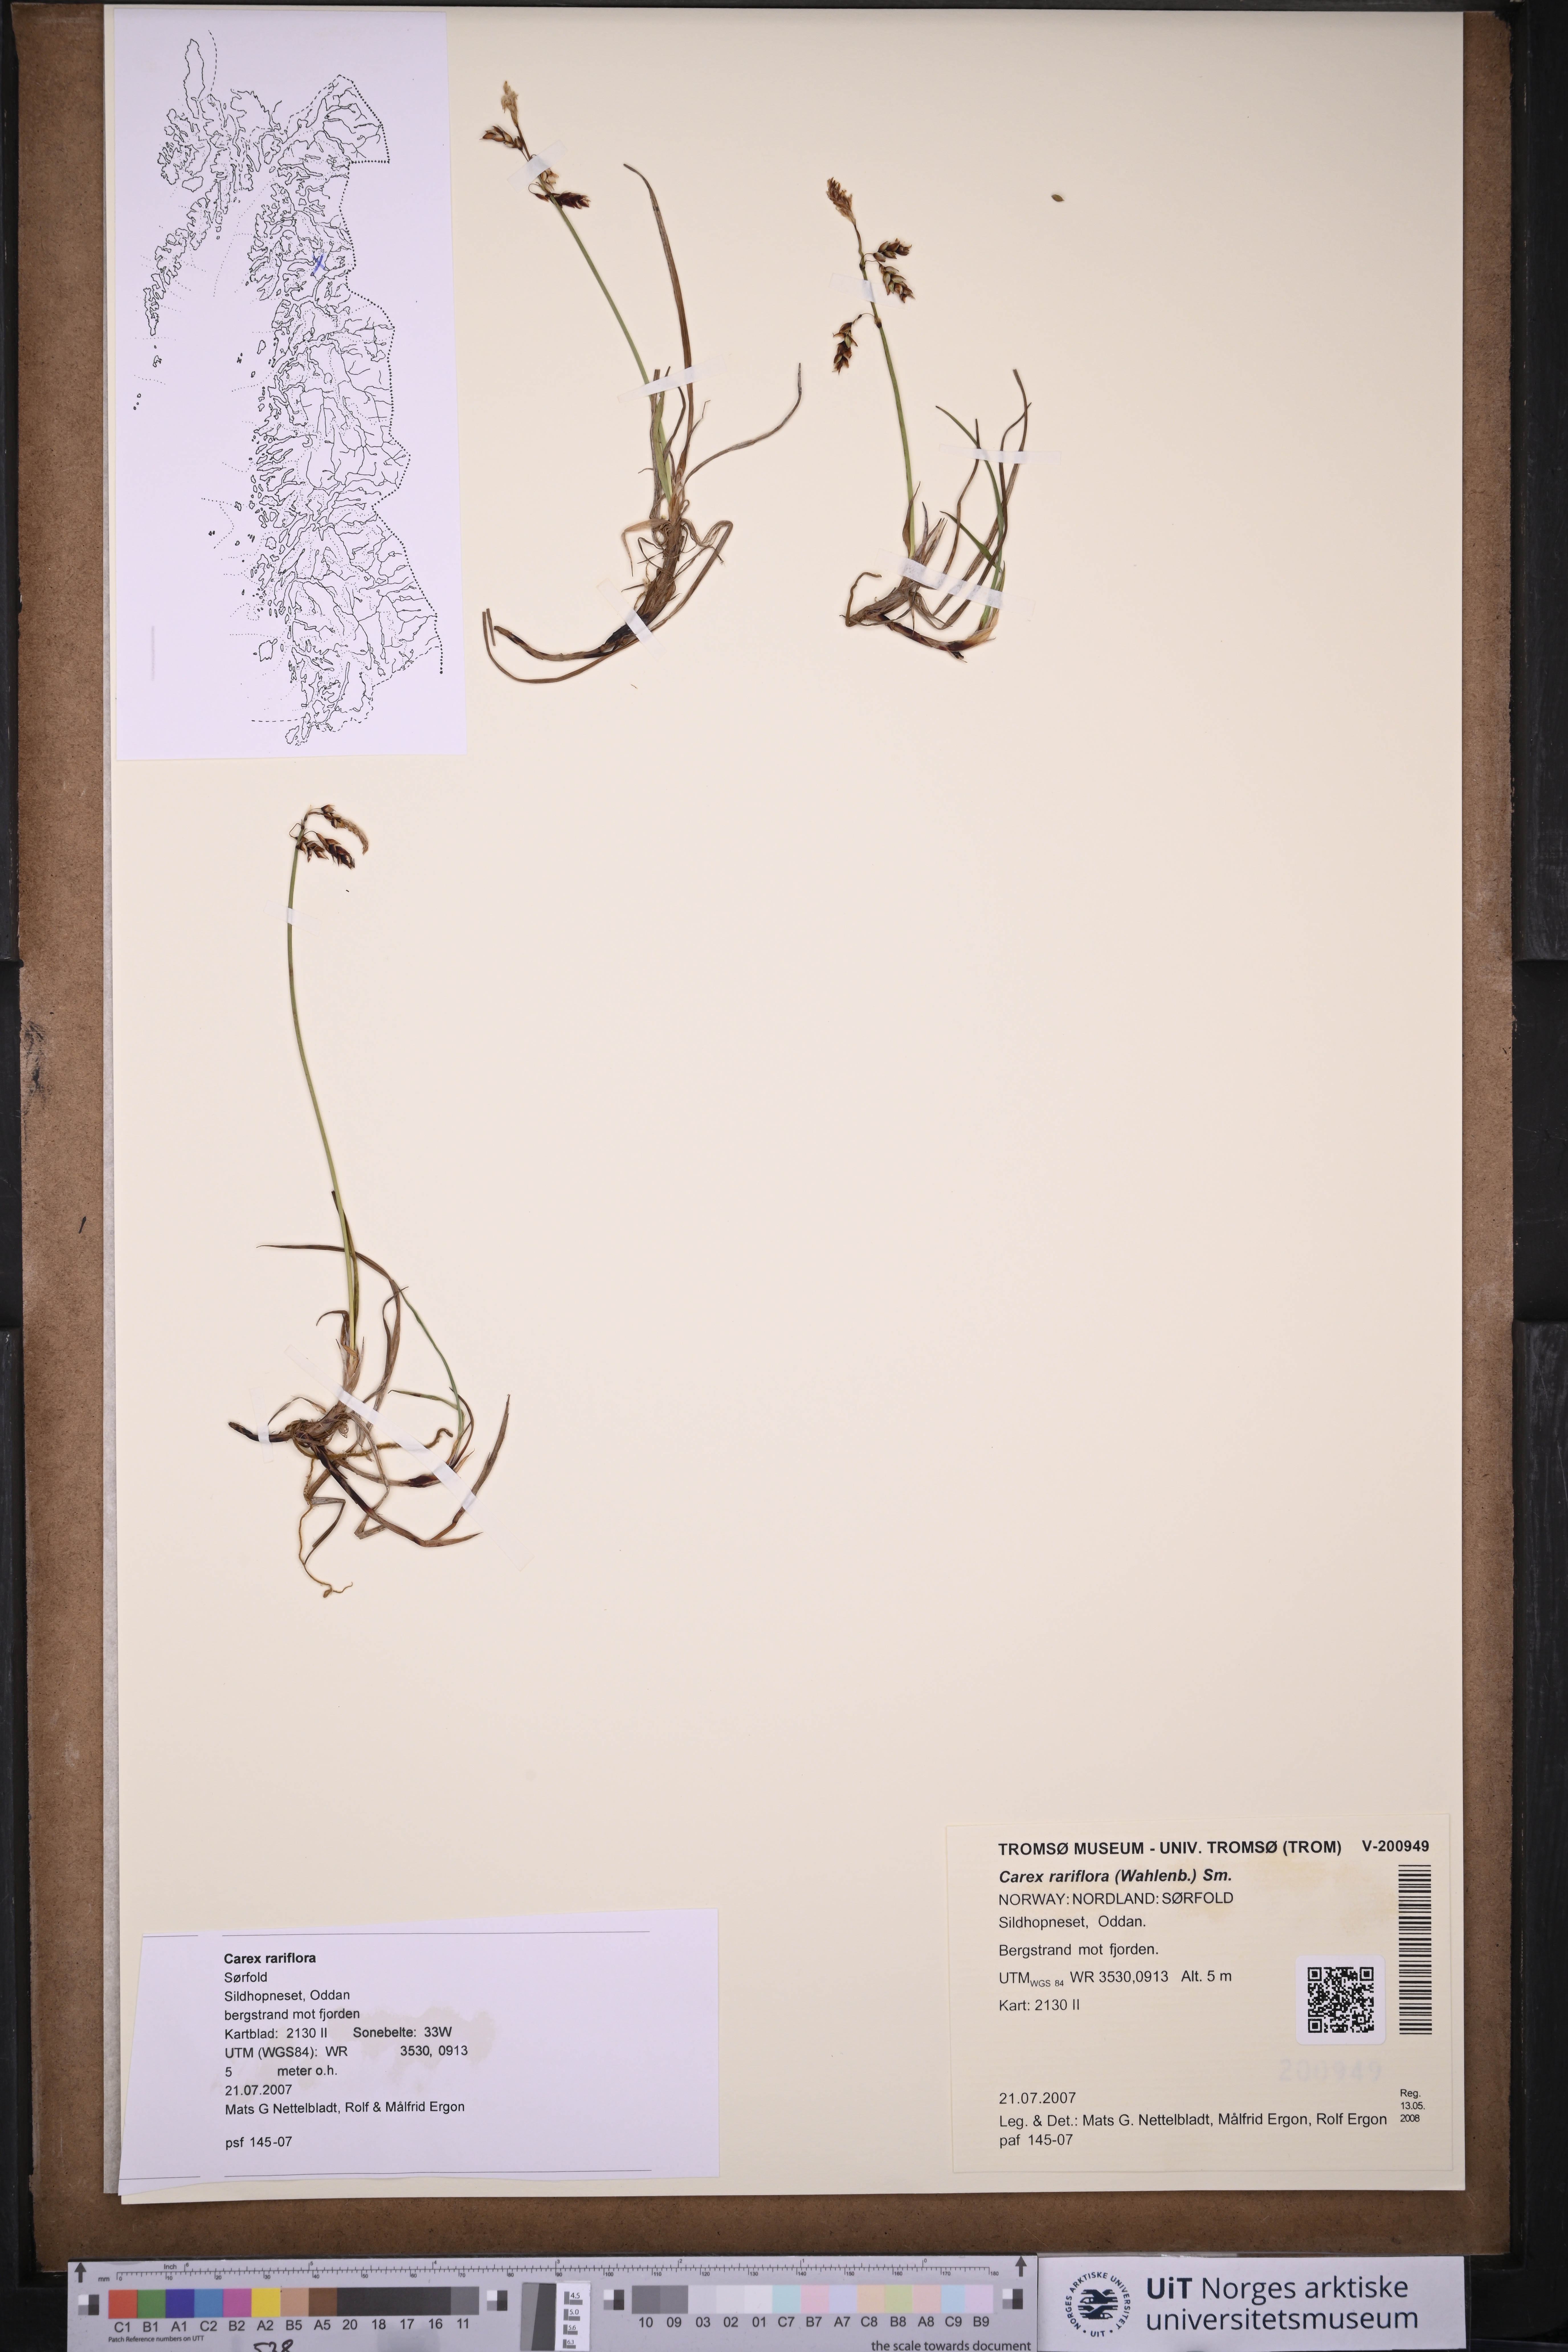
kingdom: Plantae
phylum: Tracheophyta
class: Liliopsida
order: Poales
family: Cyperaceae
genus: Carex
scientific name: Carex rariflora
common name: Loose-flowered alpine sedge
